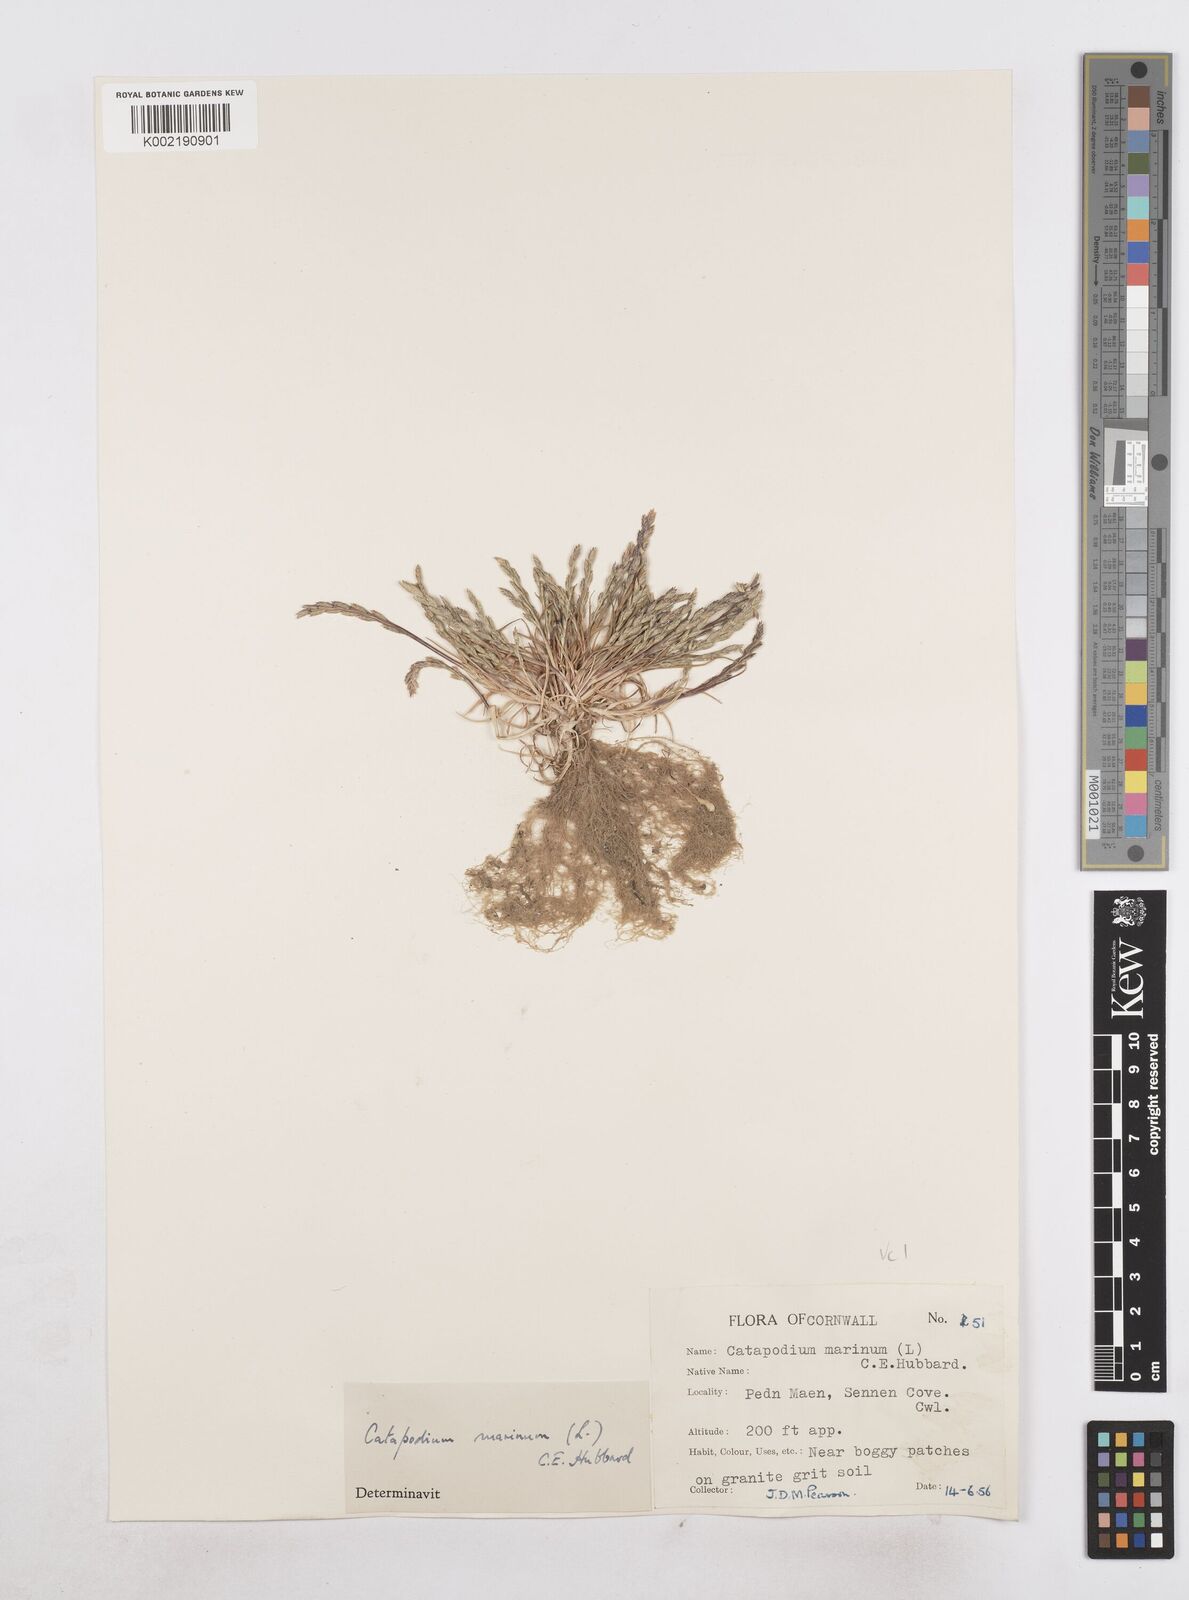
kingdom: Plantae
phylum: Tracheophyta
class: Liliopsida
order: Poales
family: Poaceae
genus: Catapodium
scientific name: Catapodium marinum
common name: Sea fern-grass
